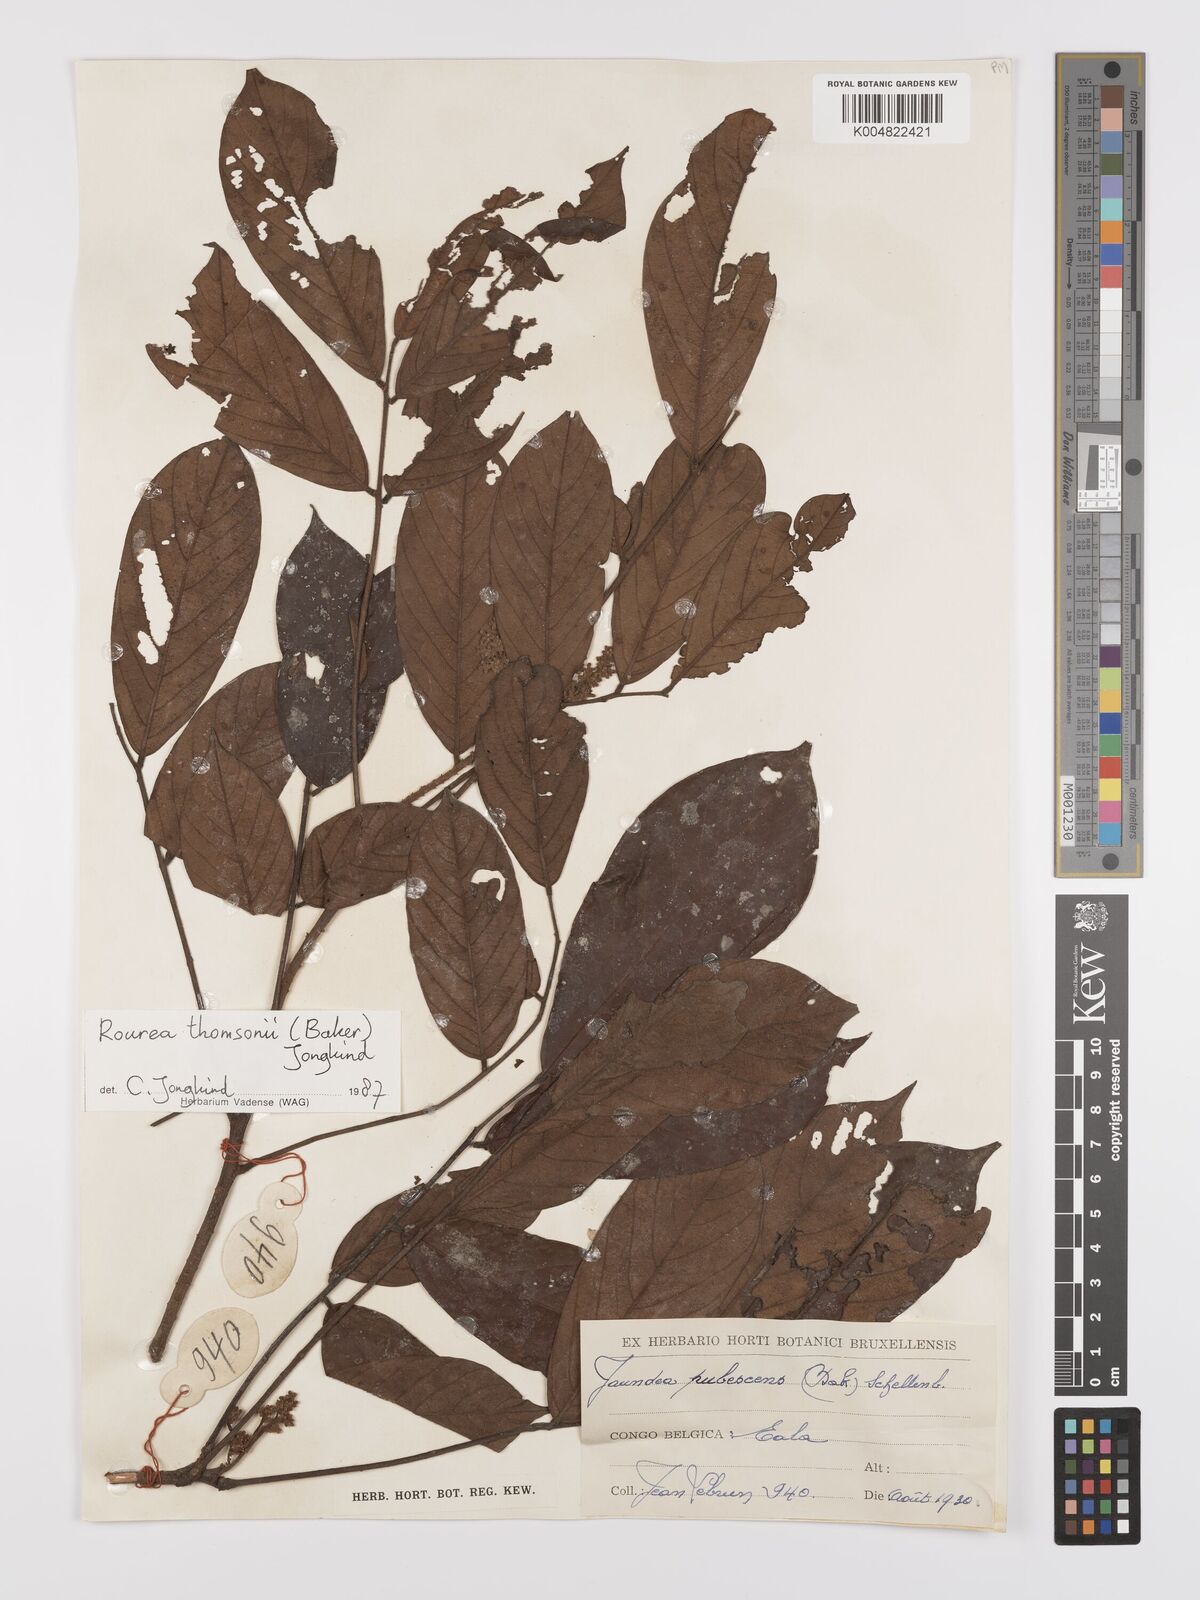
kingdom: Plantae
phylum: Tracheophyta
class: Magnoliopsida
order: Oxalidales
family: Connaraceae
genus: Rourea
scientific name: Rourea pubescens
